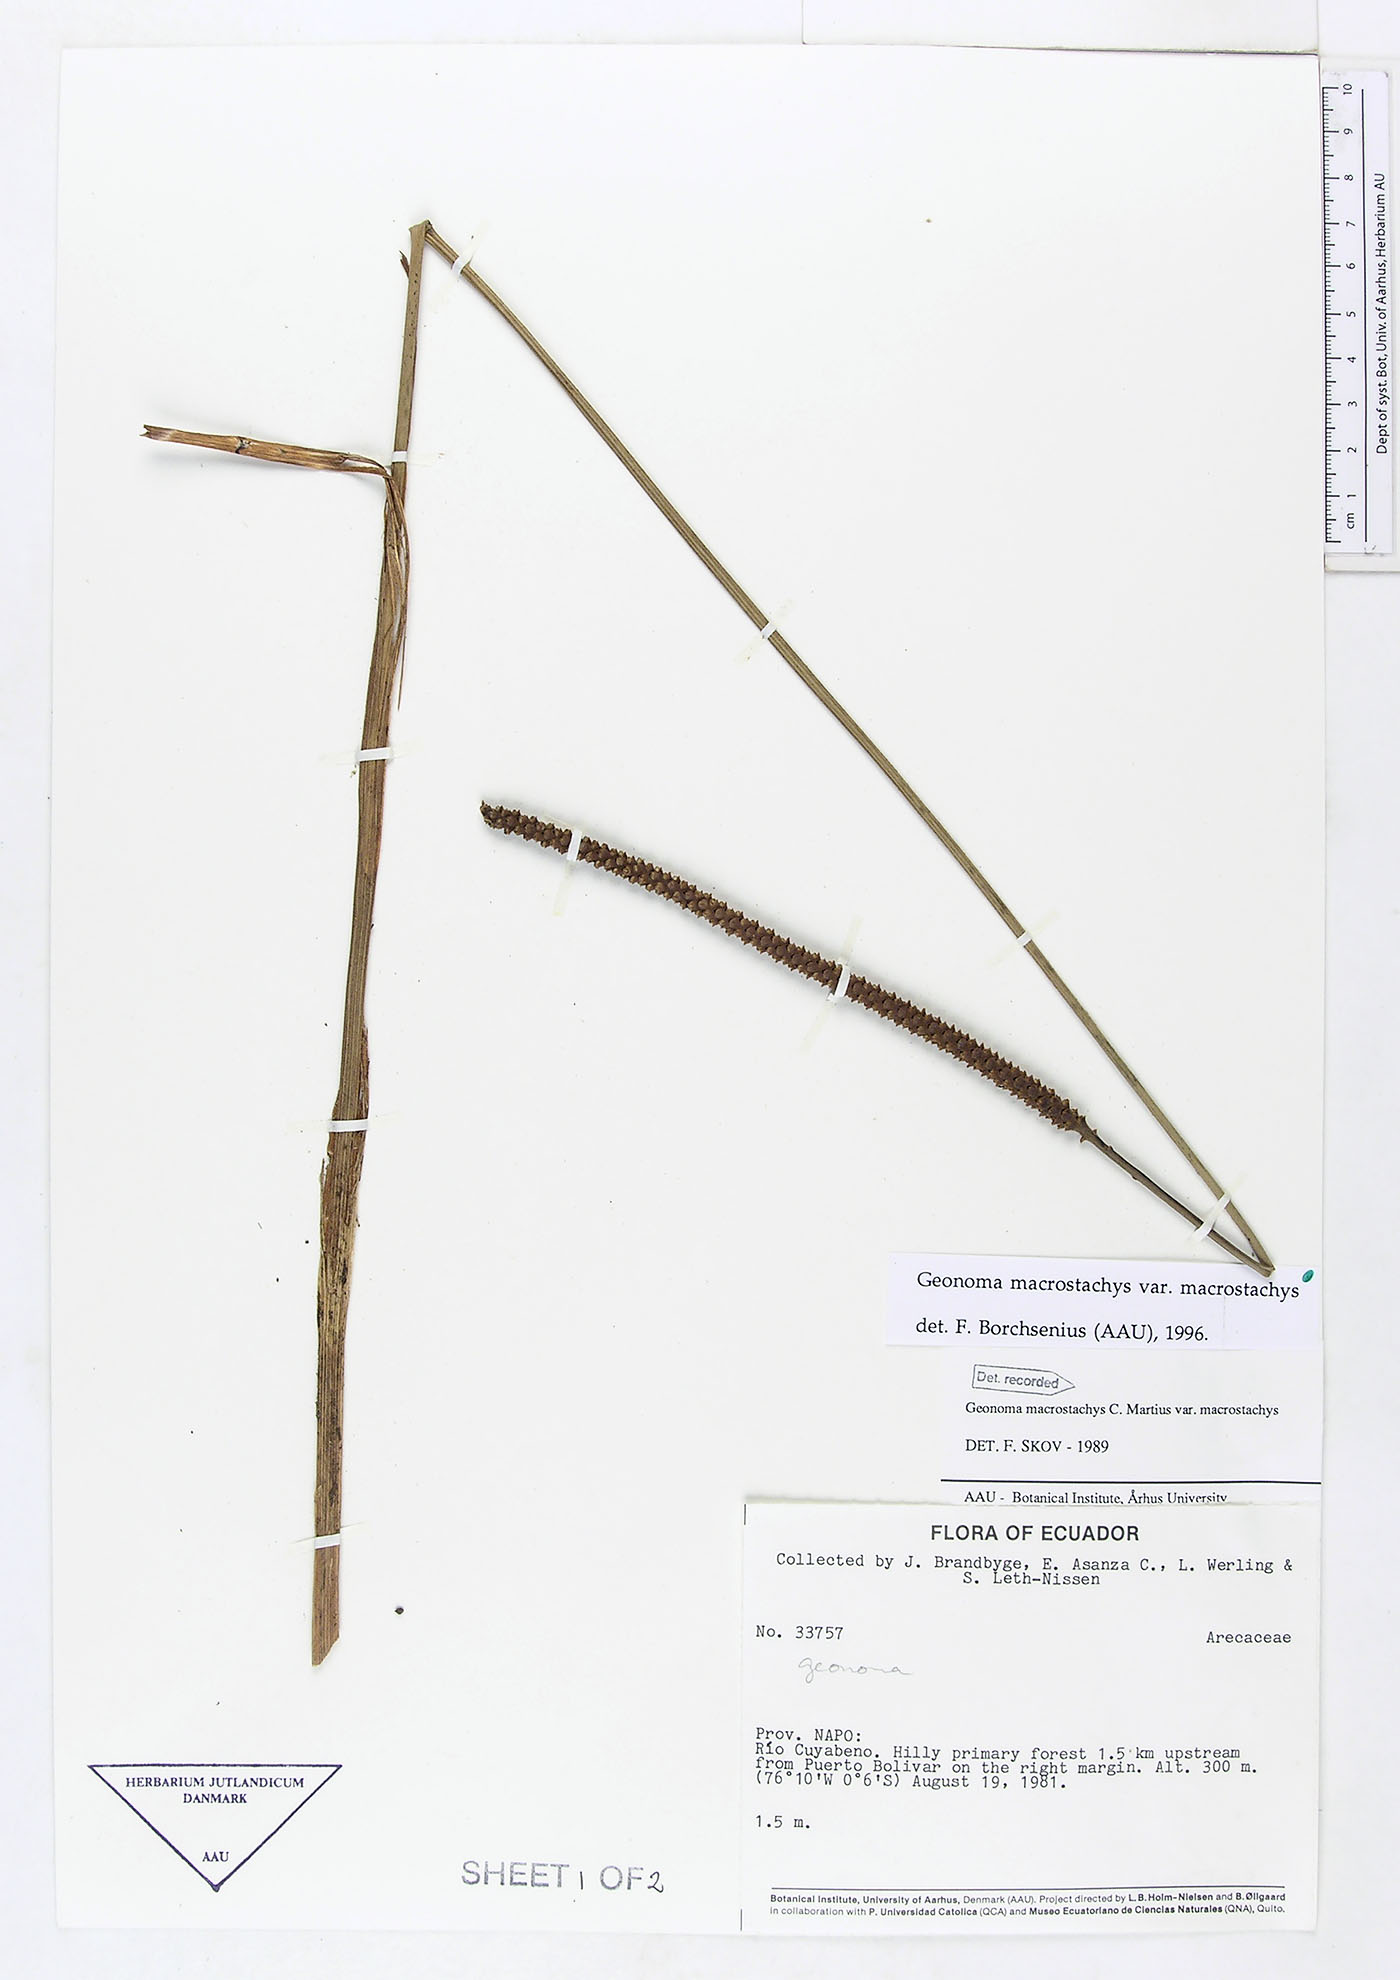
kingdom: Plantae
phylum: Tracheophyta
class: Liliopsida
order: Arecales
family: Arecaceae
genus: Geonoma
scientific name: Geonoma macrostachys
